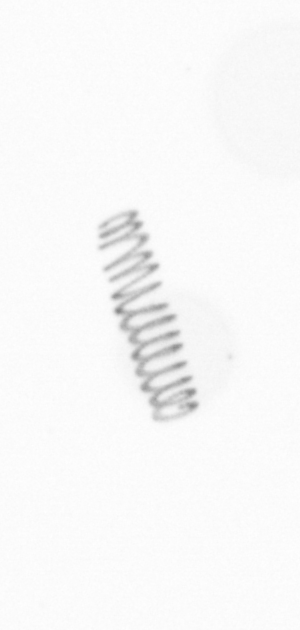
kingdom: Chromista
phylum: Ochrophyta
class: Bacillariophyceae
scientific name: Bacillariophyceae
